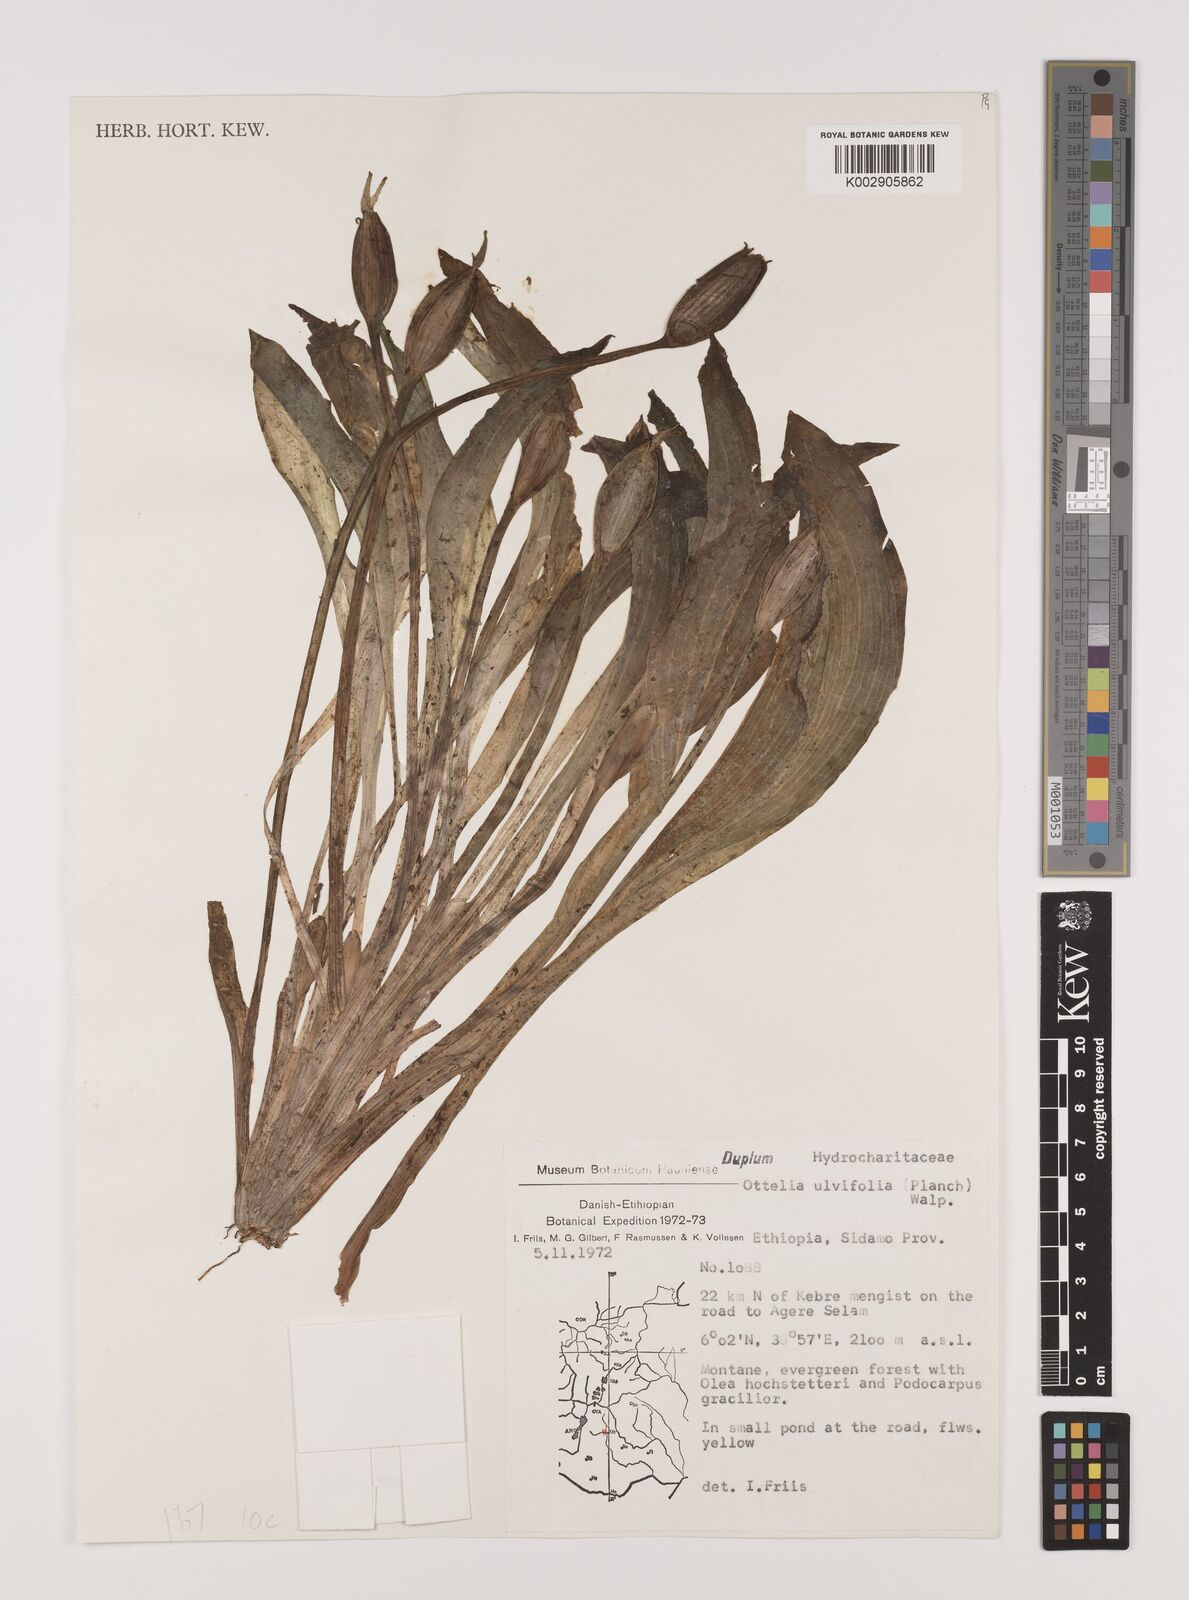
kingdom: Plantae
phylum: Tracheophyta
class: Liliopsida
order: Alismatales
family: Hydrocharitaceae
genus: Ottelia
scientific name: Ottelia ulvifolia
